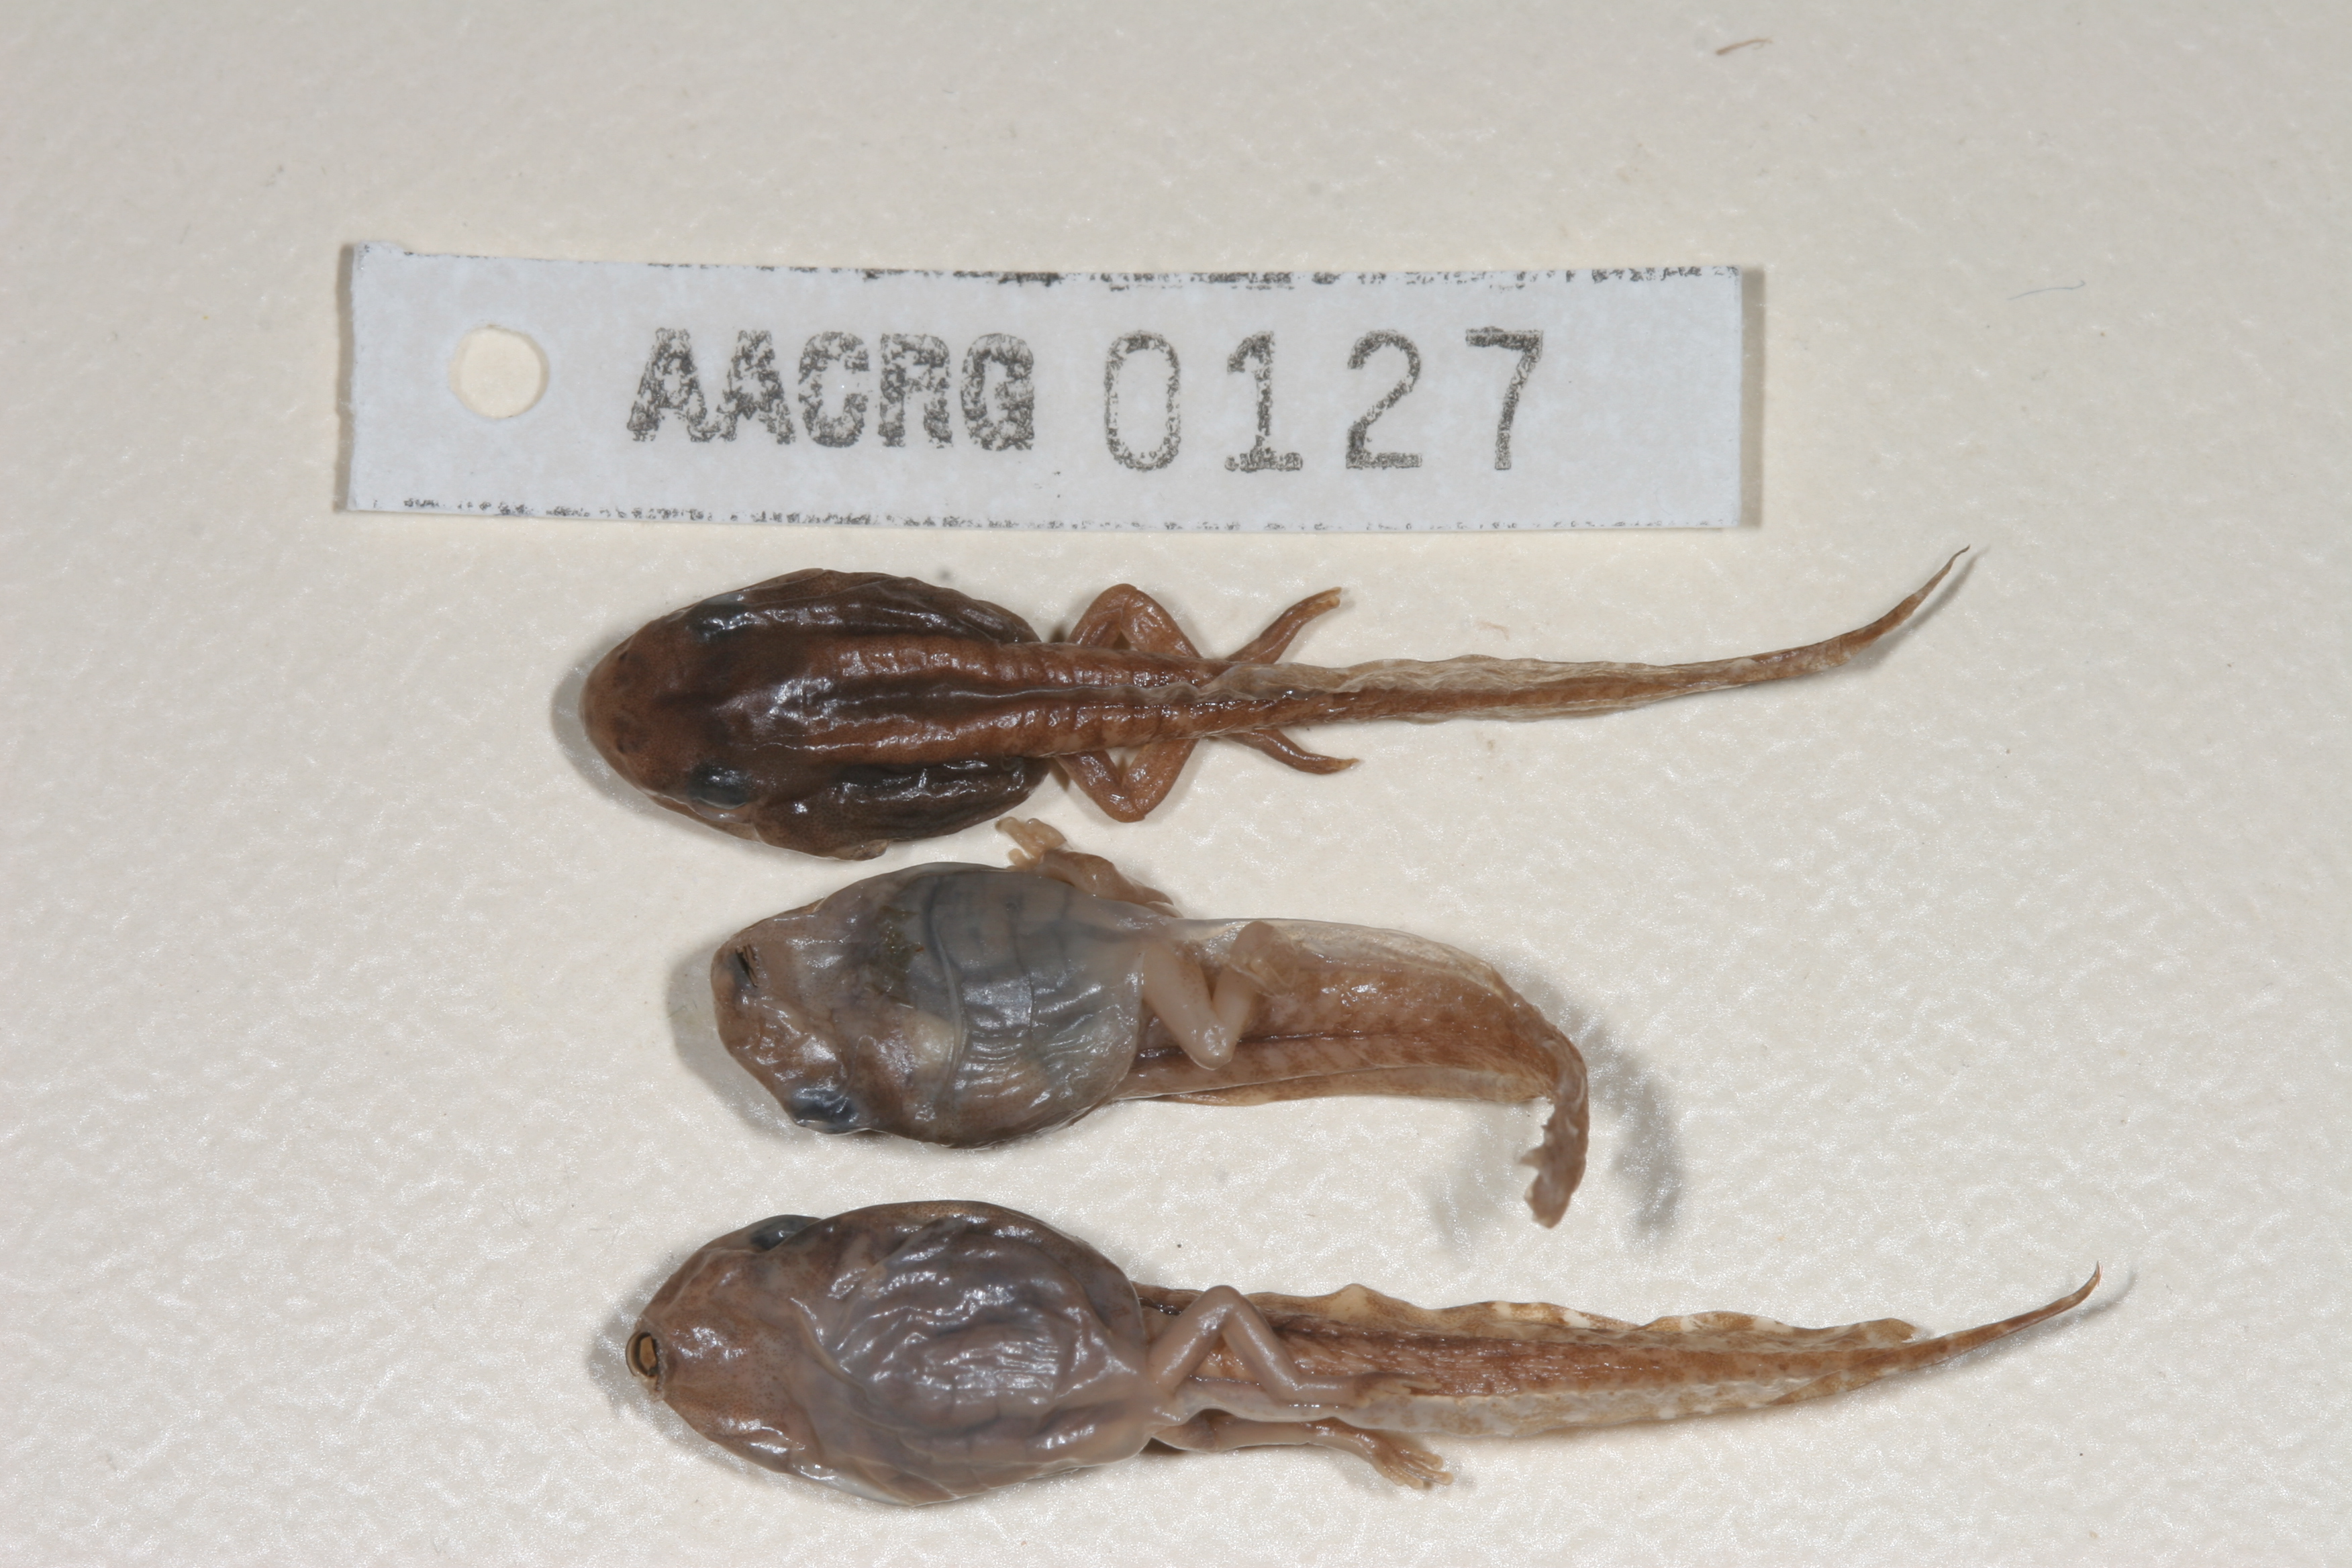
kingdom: Animalia
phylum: Chordata
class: Amphibia
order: Anura
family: Hyperoliidae
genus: Hyperolius
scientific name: Hyperolius semidiscus
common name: Yellow-striped reed frog
